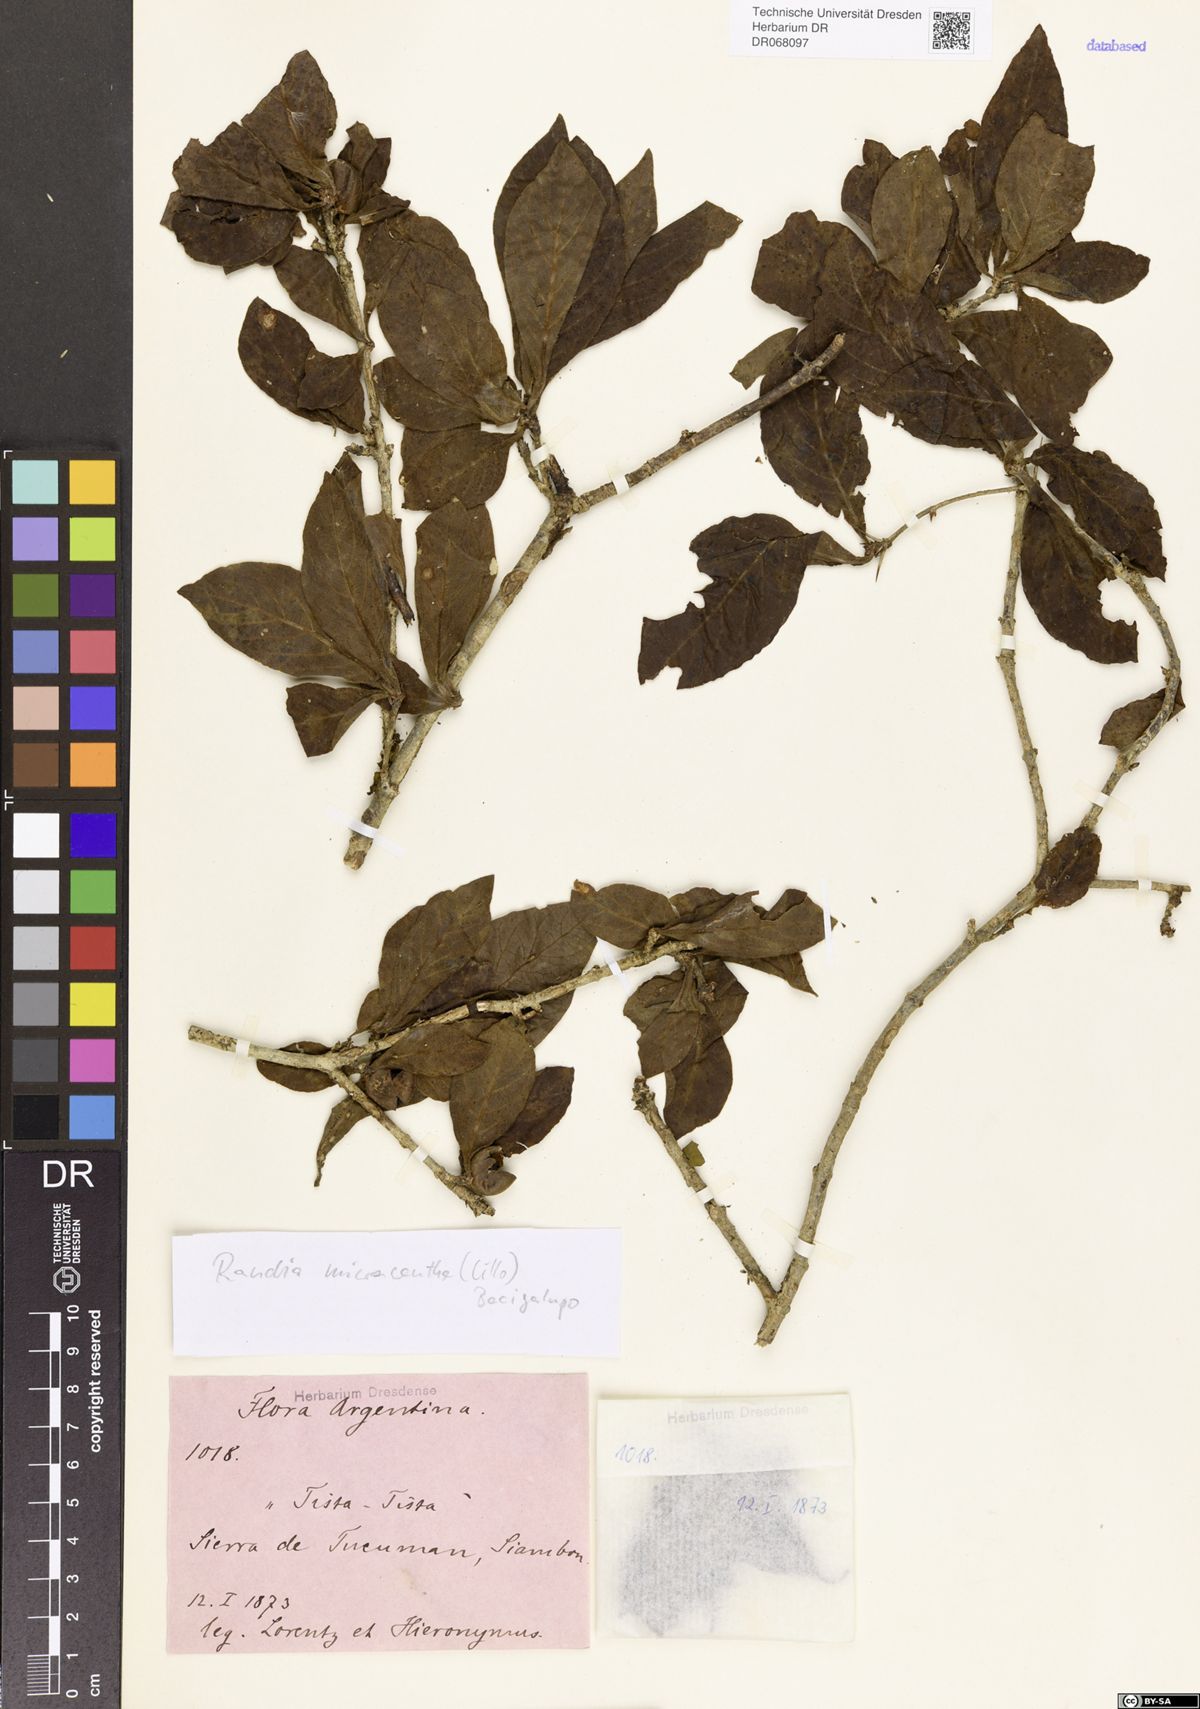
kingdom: Plantae
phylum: Tracheophyta
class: Magnoliopsida
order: Gentianales
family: Rubiaceae
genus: Randia
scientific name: Randia micracantha
